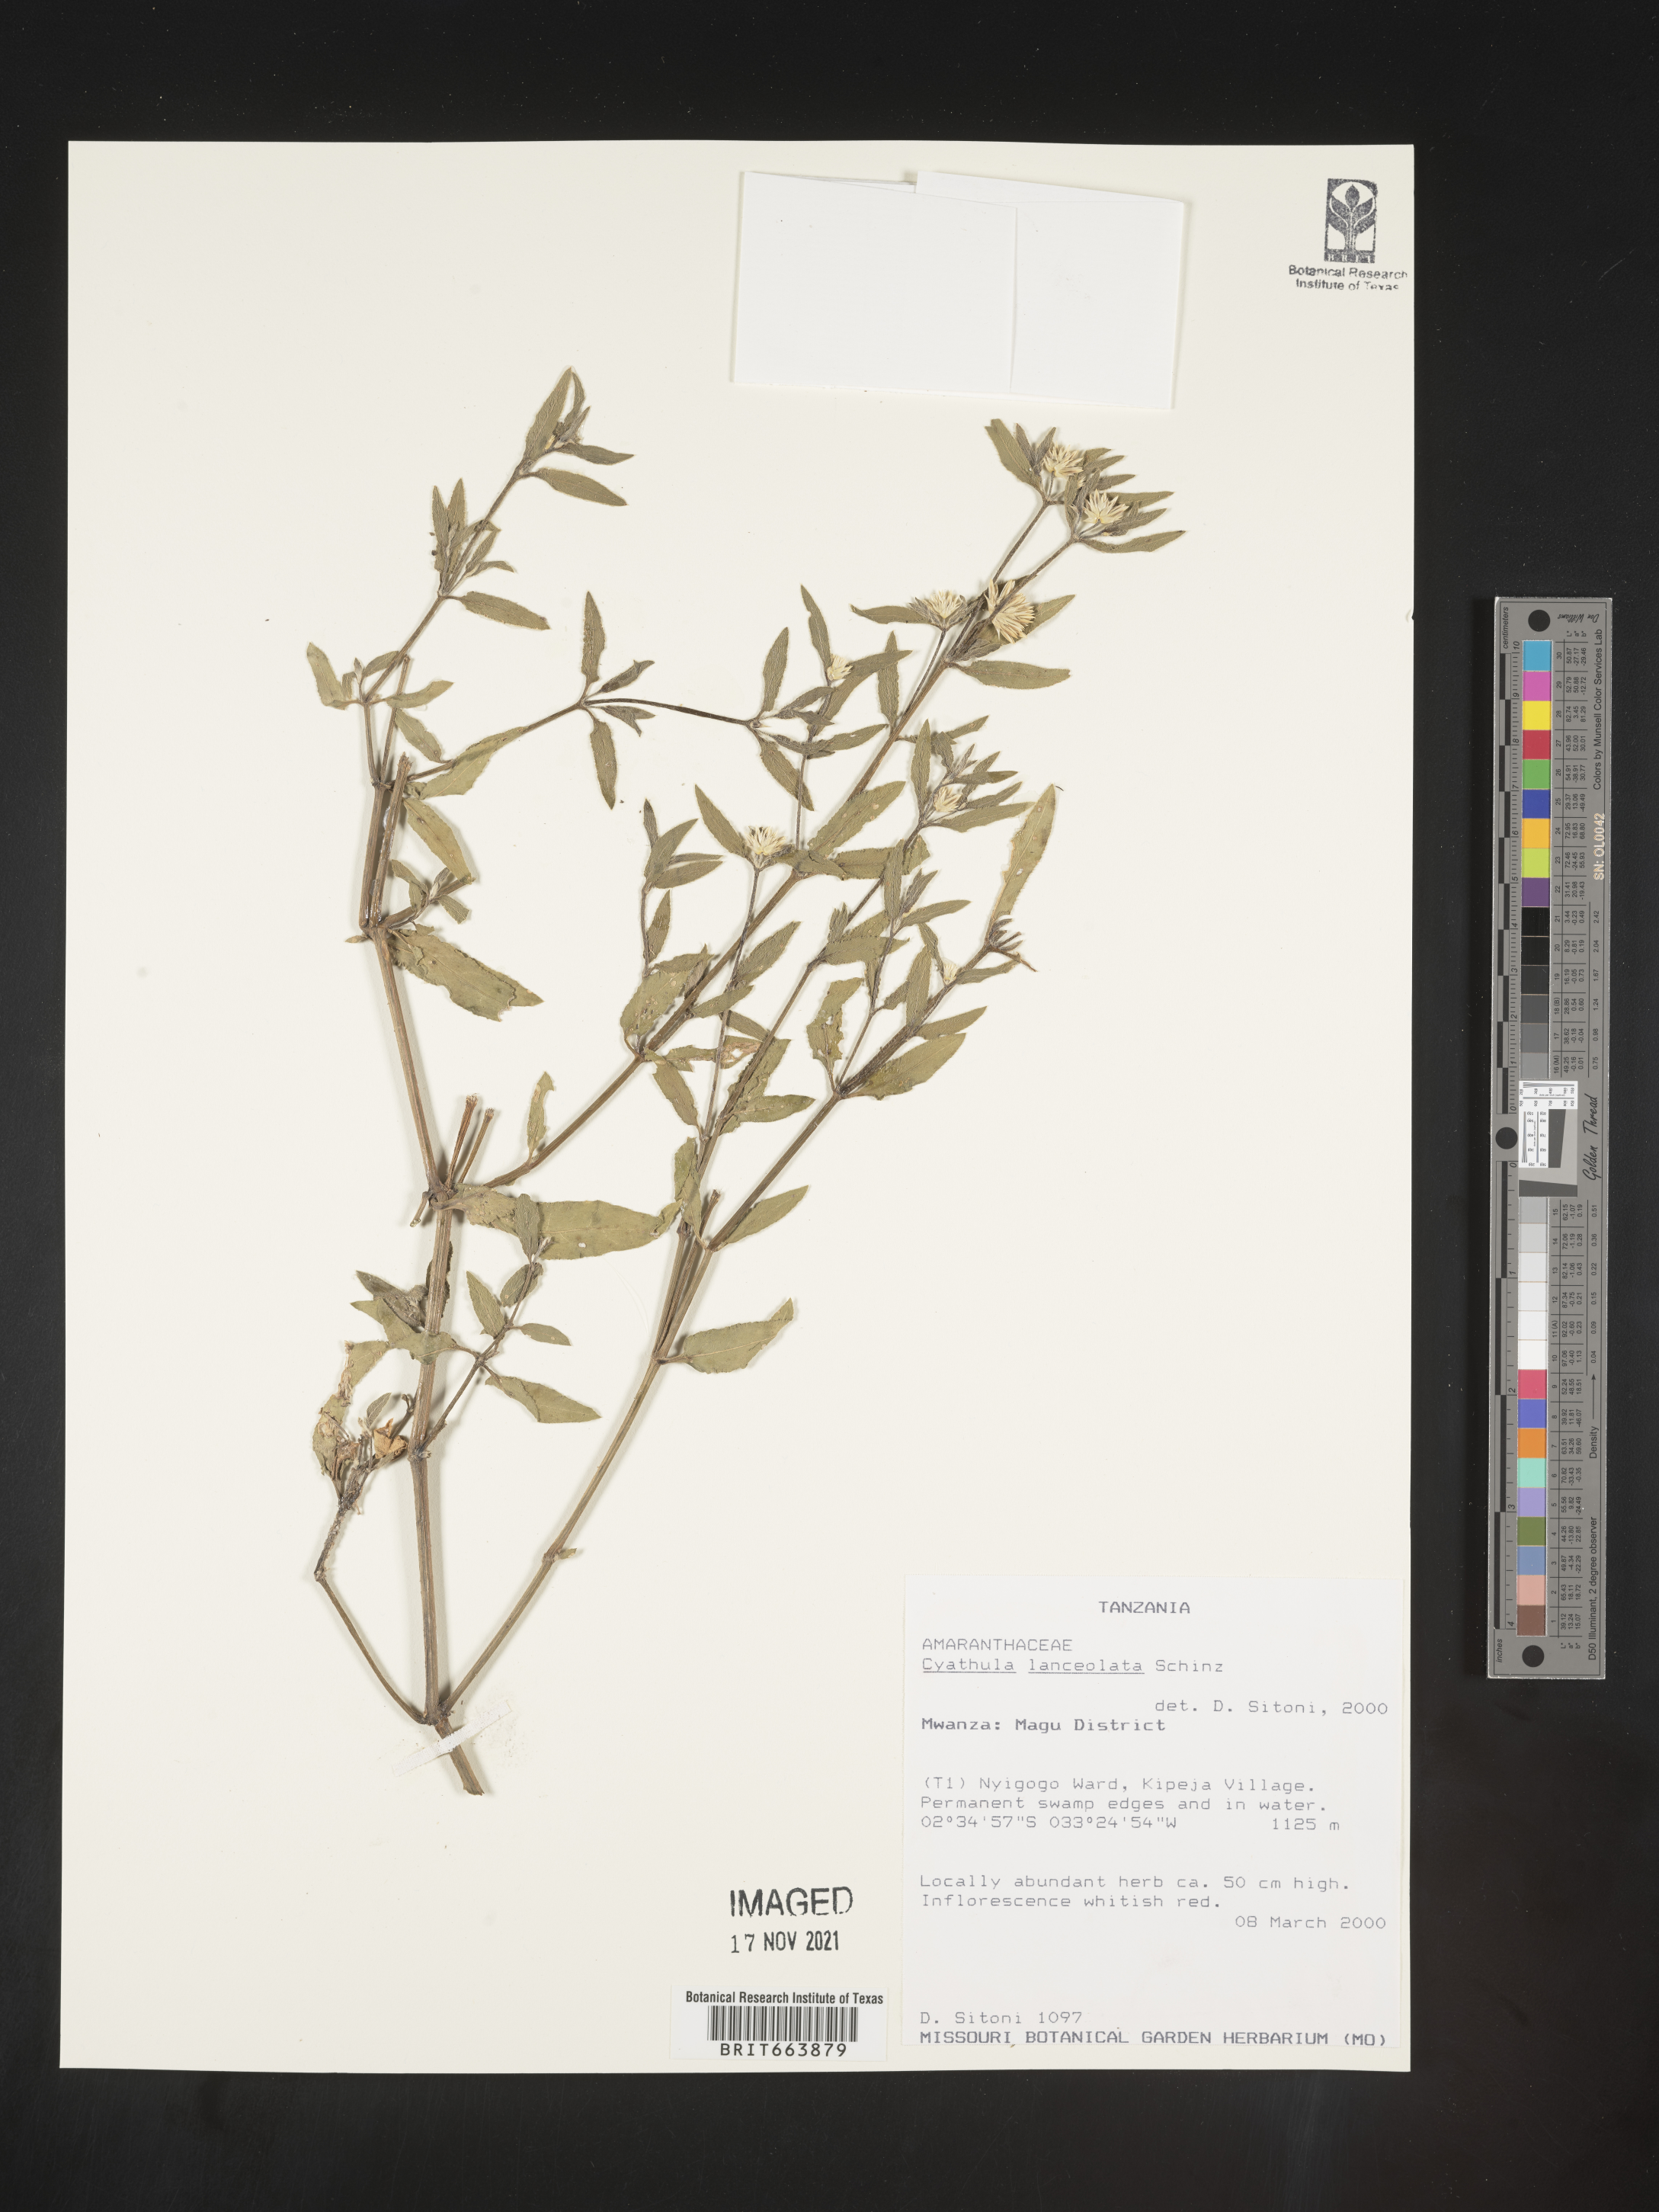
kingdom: Plantae
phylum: Tracheophyta
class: Magnoliopsida
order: Caryophyllales
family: Amaranthaceae
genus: Cyathula
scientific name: Cyathula
